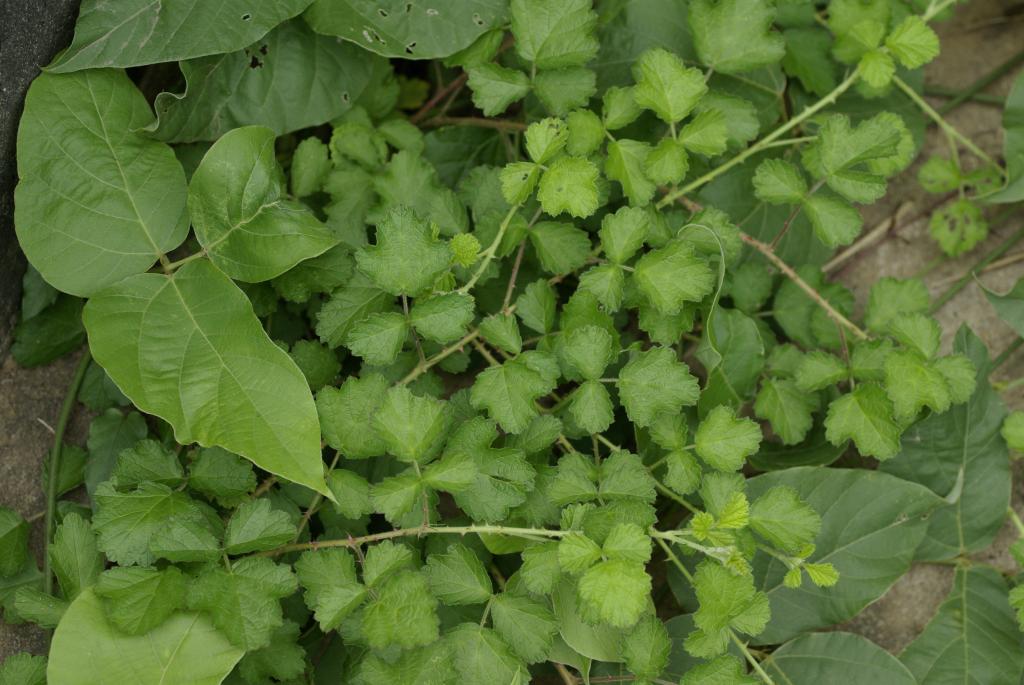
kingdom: Plantae
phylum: Tracheophyta
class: Magnoliopsida
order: Rosales
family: Rosaceae
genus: Rubus
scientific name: Rubus parvifolius
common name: Threeleaf blackberry
